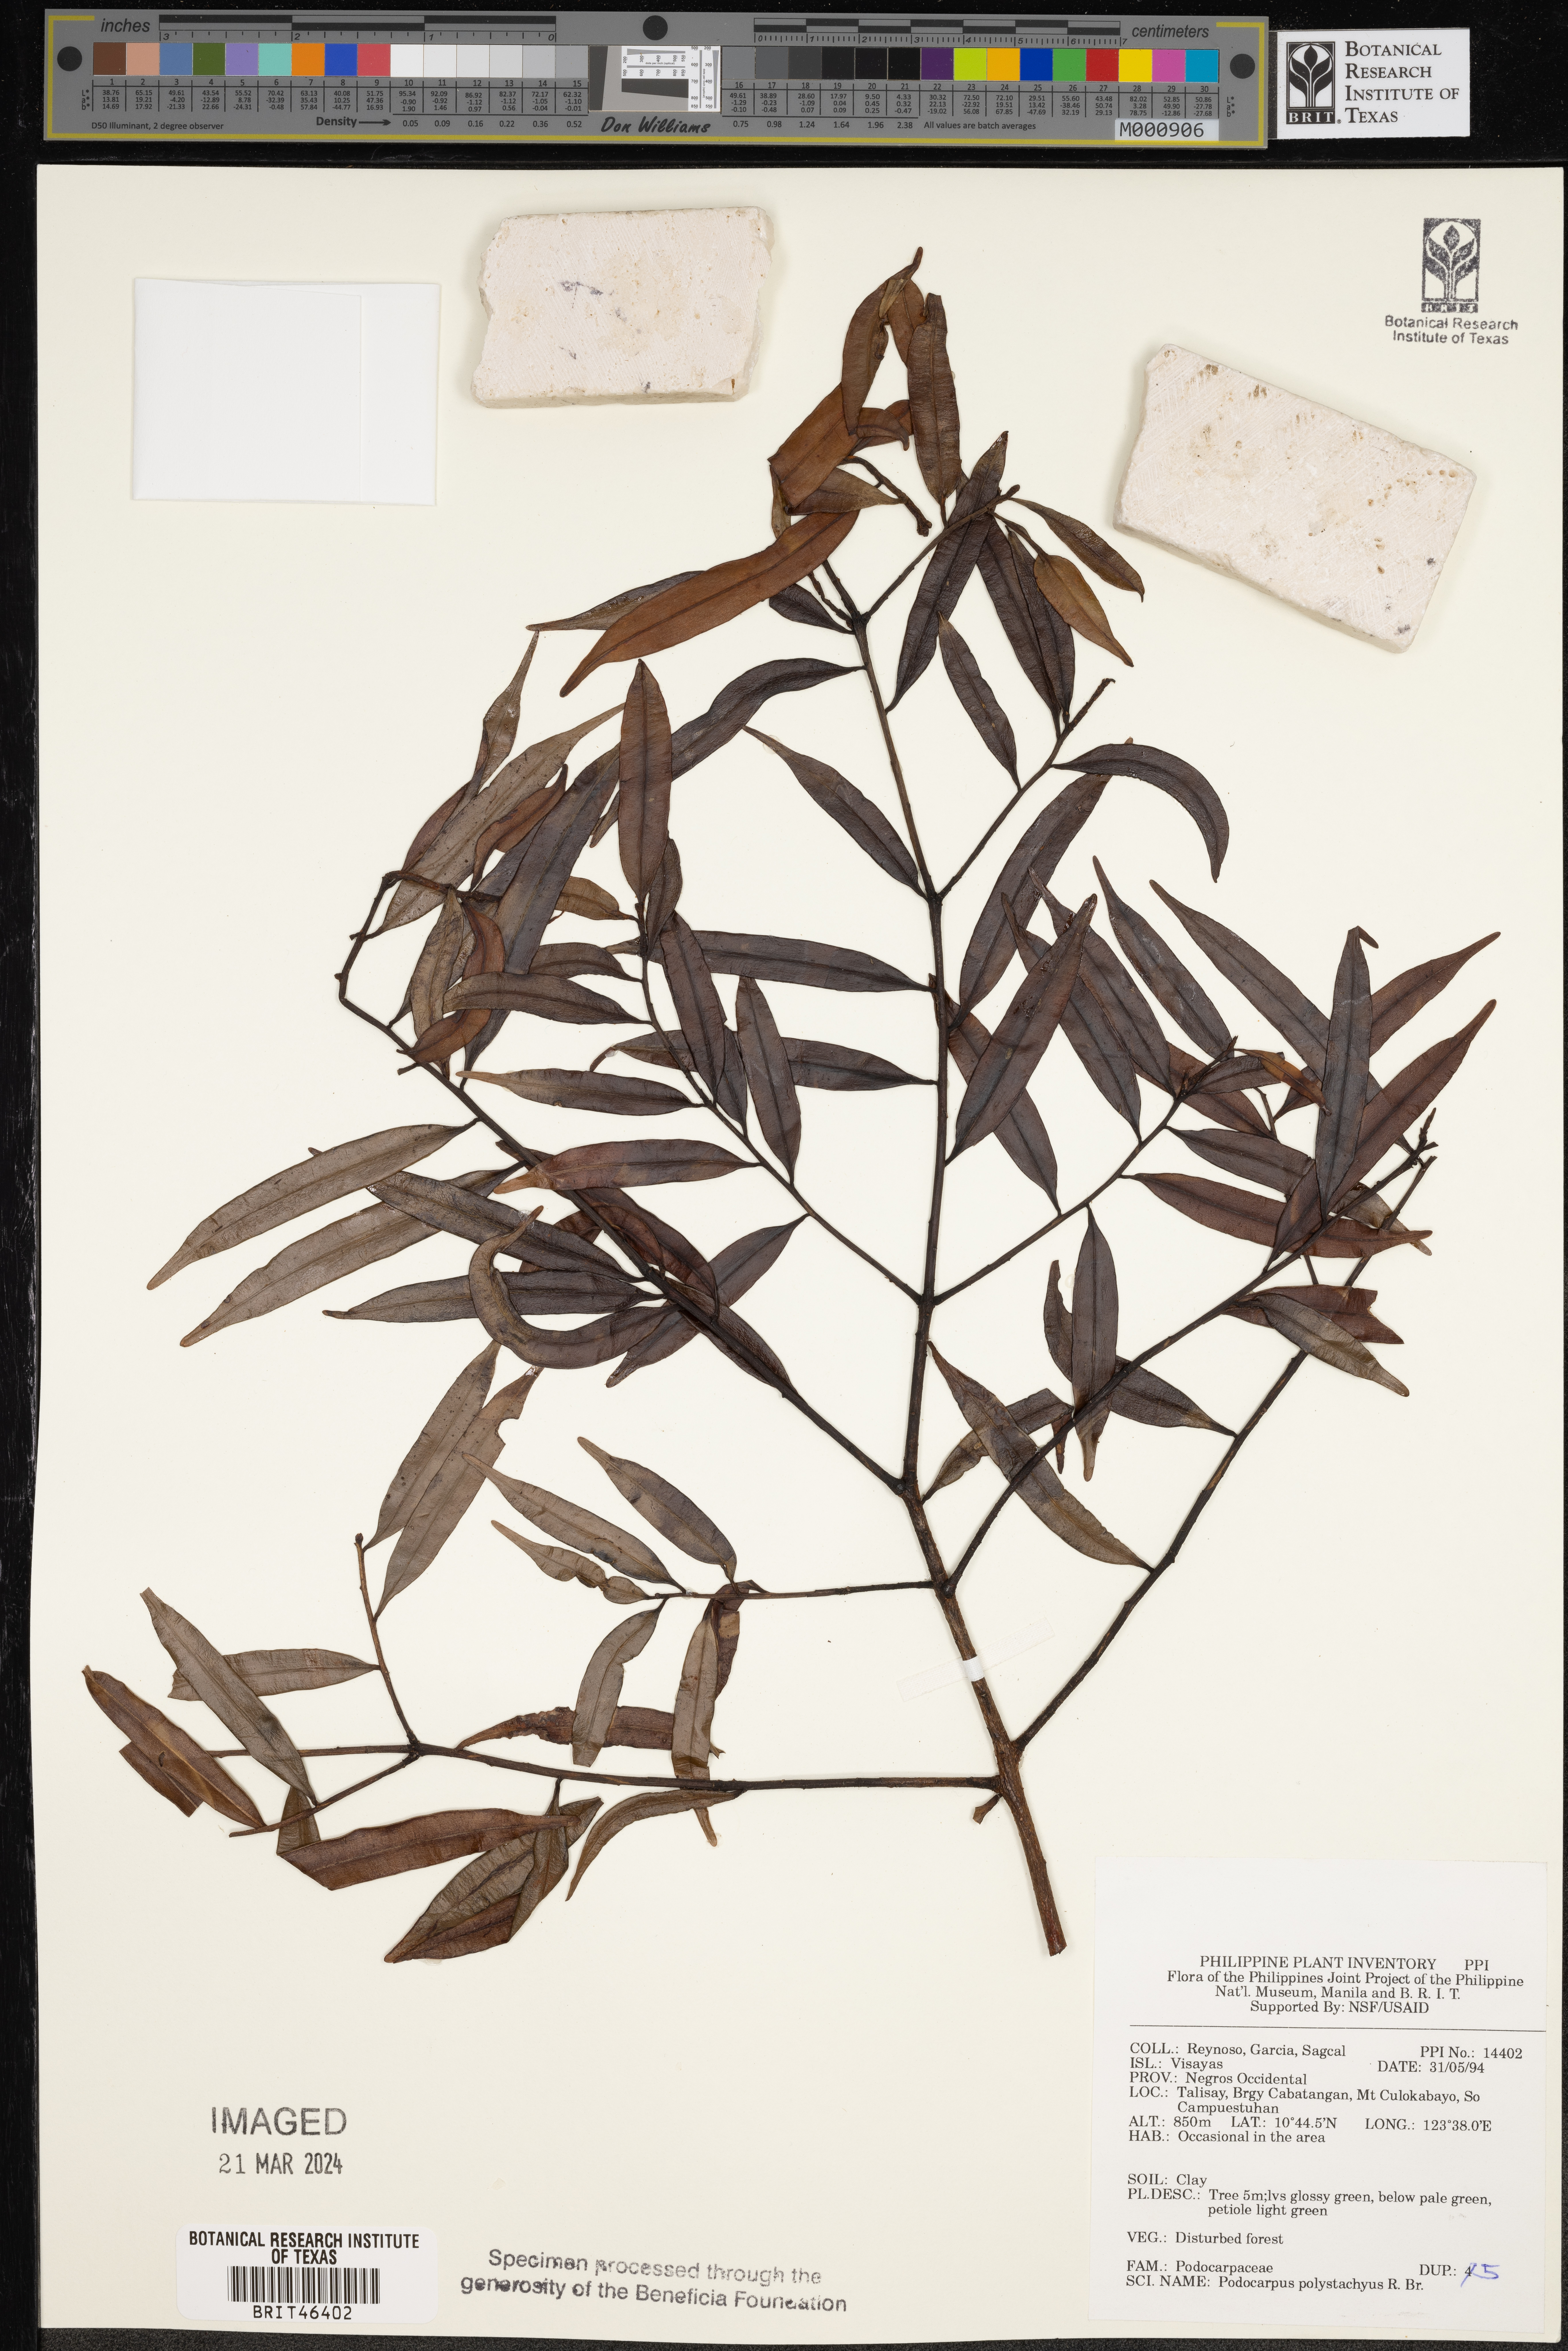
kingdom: Plantae
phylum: Tracheophyta
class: Pinopsida
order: Pinales
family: Podocarpaceae
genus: Podocarpus
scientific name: Podocarpus polystachyus
